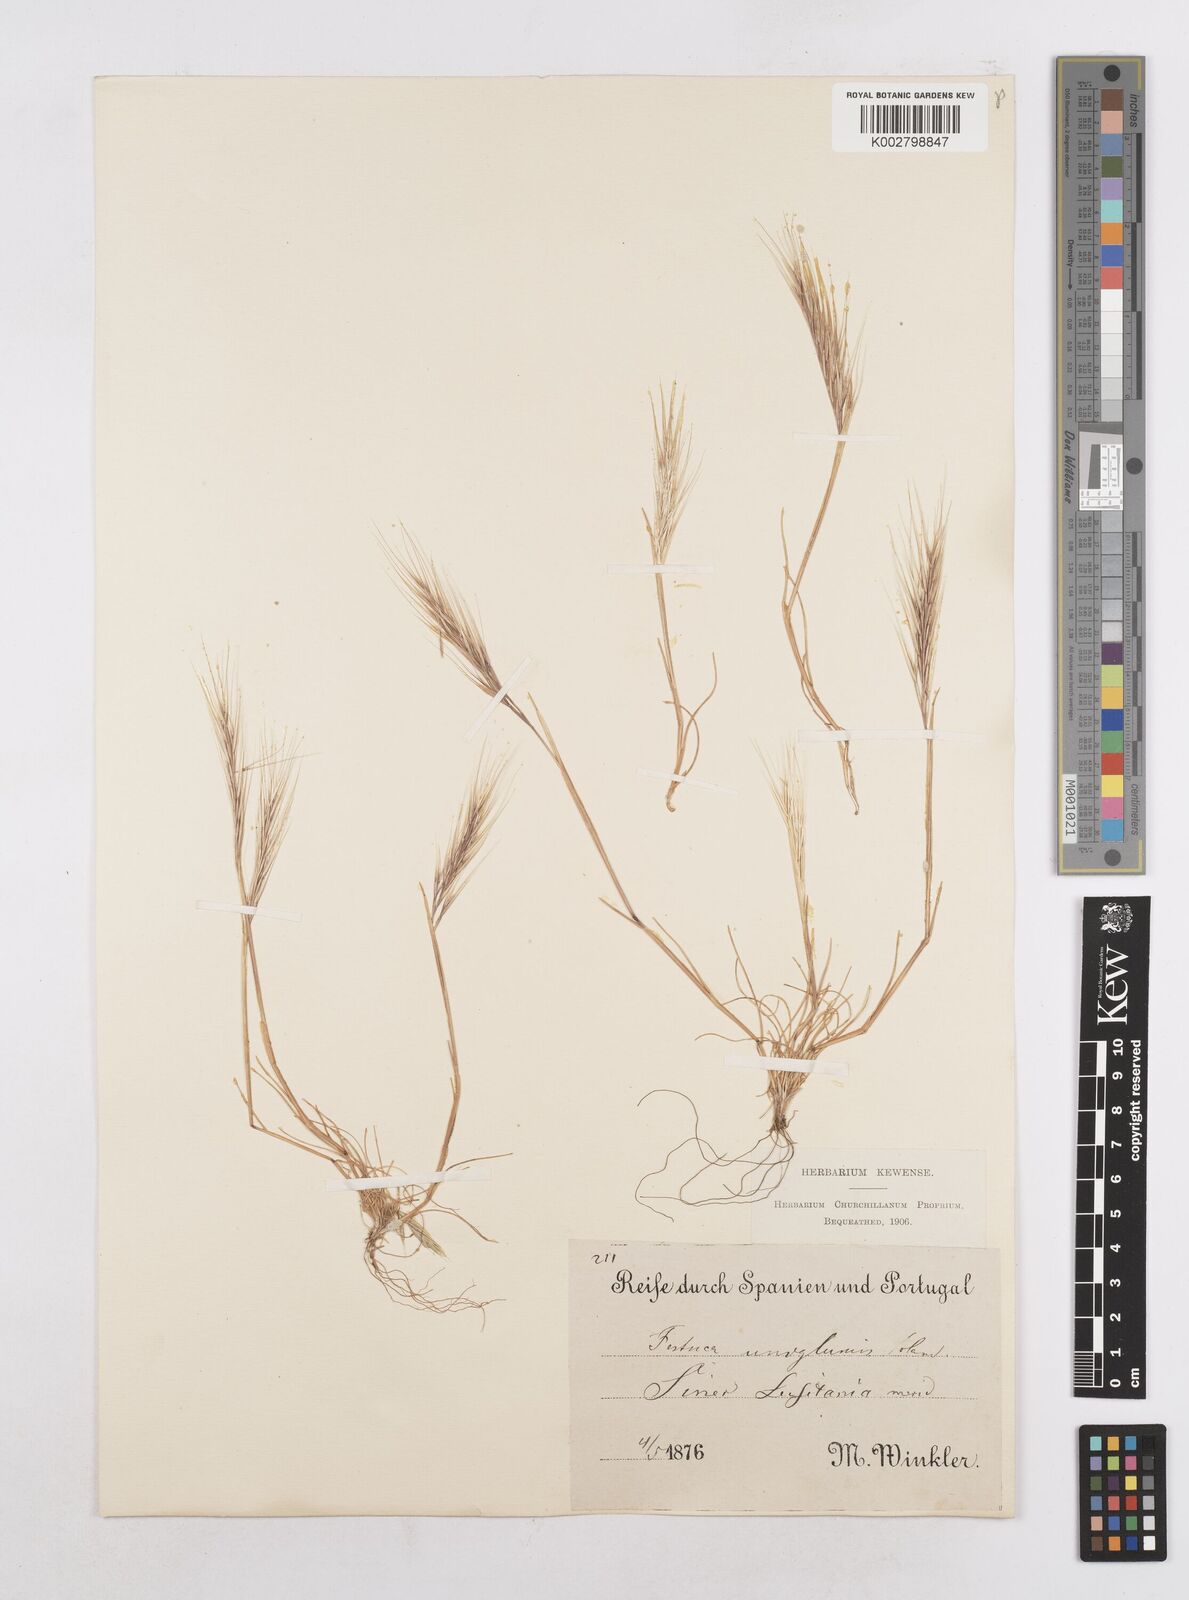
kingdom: Plantae
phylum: Tracheophyta
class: Liliopsida
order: Poales
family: Poaceae
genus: Festuca
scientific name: Festuca membranacea
